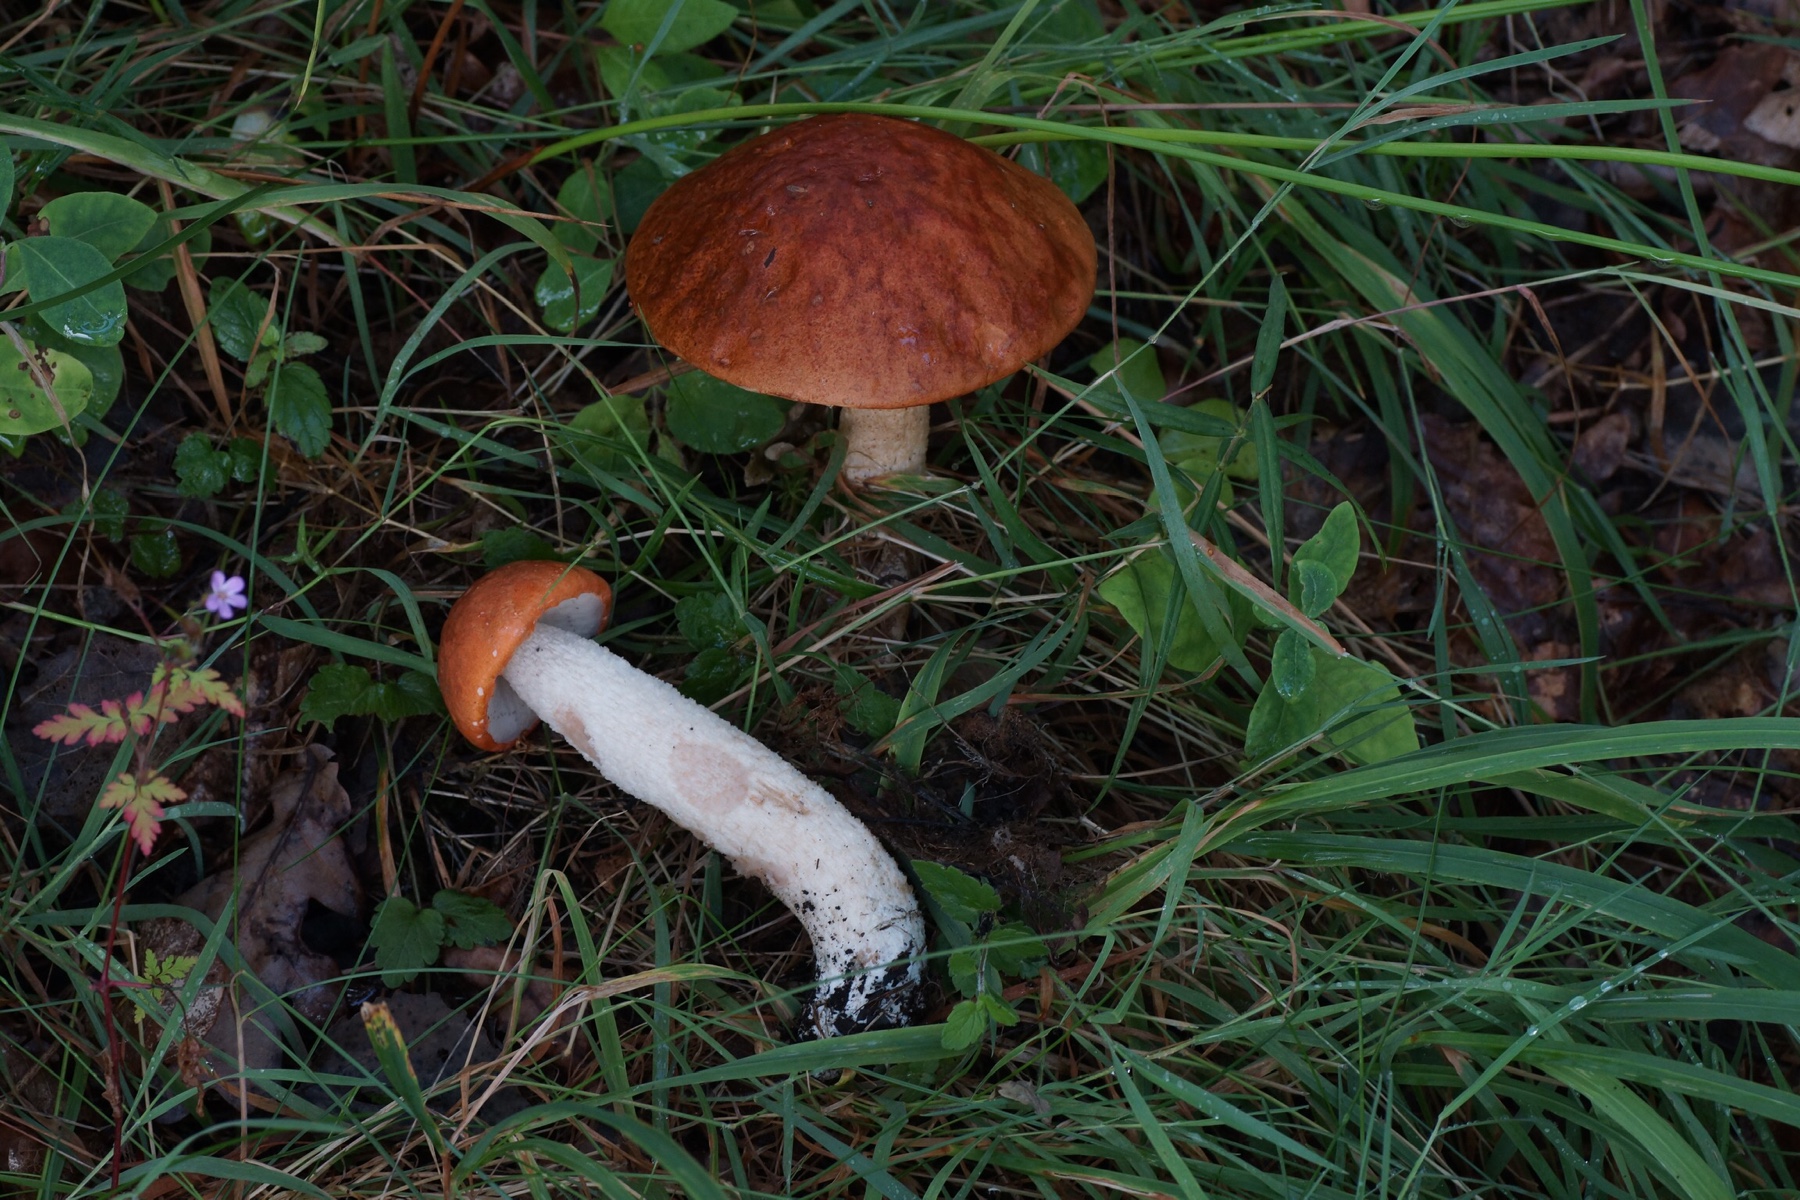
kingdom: Fungi
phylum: Basidiomycota
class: Agaricomycetes
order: Boletales
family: Boletaceae
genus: Leccinum
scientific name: Leccinum albostipitatum
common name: aspe-skælrørhat
